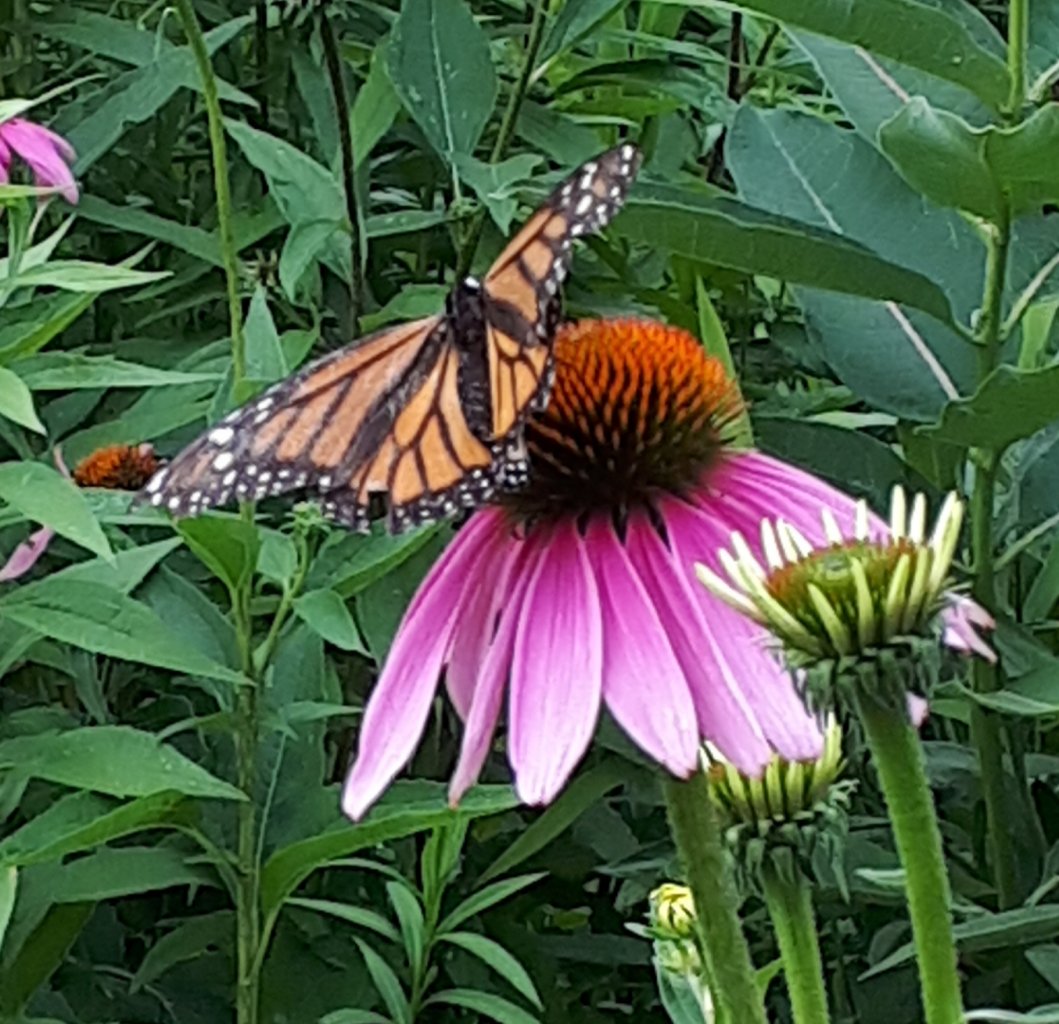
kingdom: Animalia
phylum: Arthropoda
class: Insecta
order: Lepidoptera
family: Nymphalidae
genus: Danaus
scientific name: Danaus plexippus
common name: Monarch
